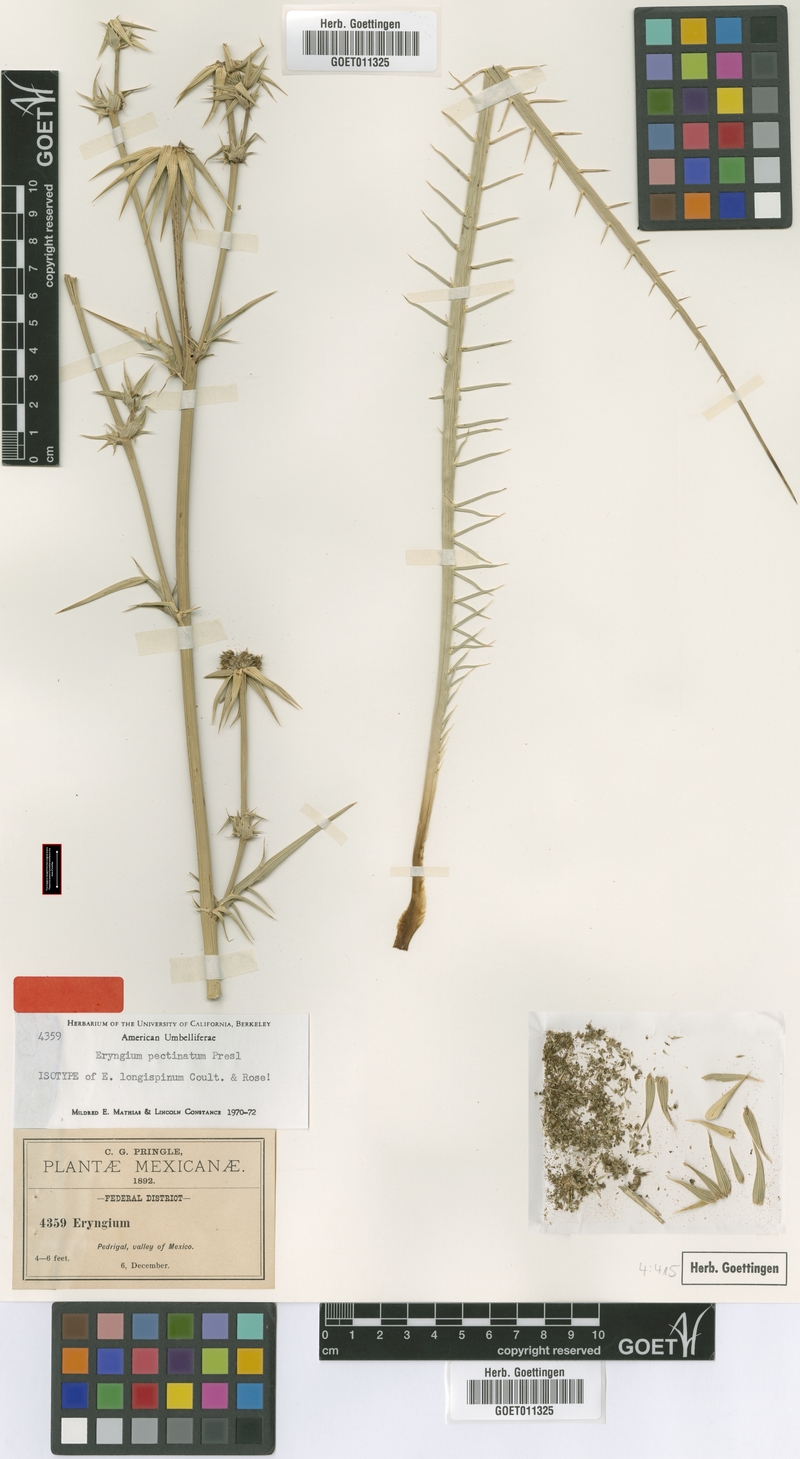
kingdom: Plantae
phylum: Tracheophyta
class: Magnoliopsida
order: Apiales
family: Apiaceae
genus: Eryngium
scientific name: Eryngium pectinatum
